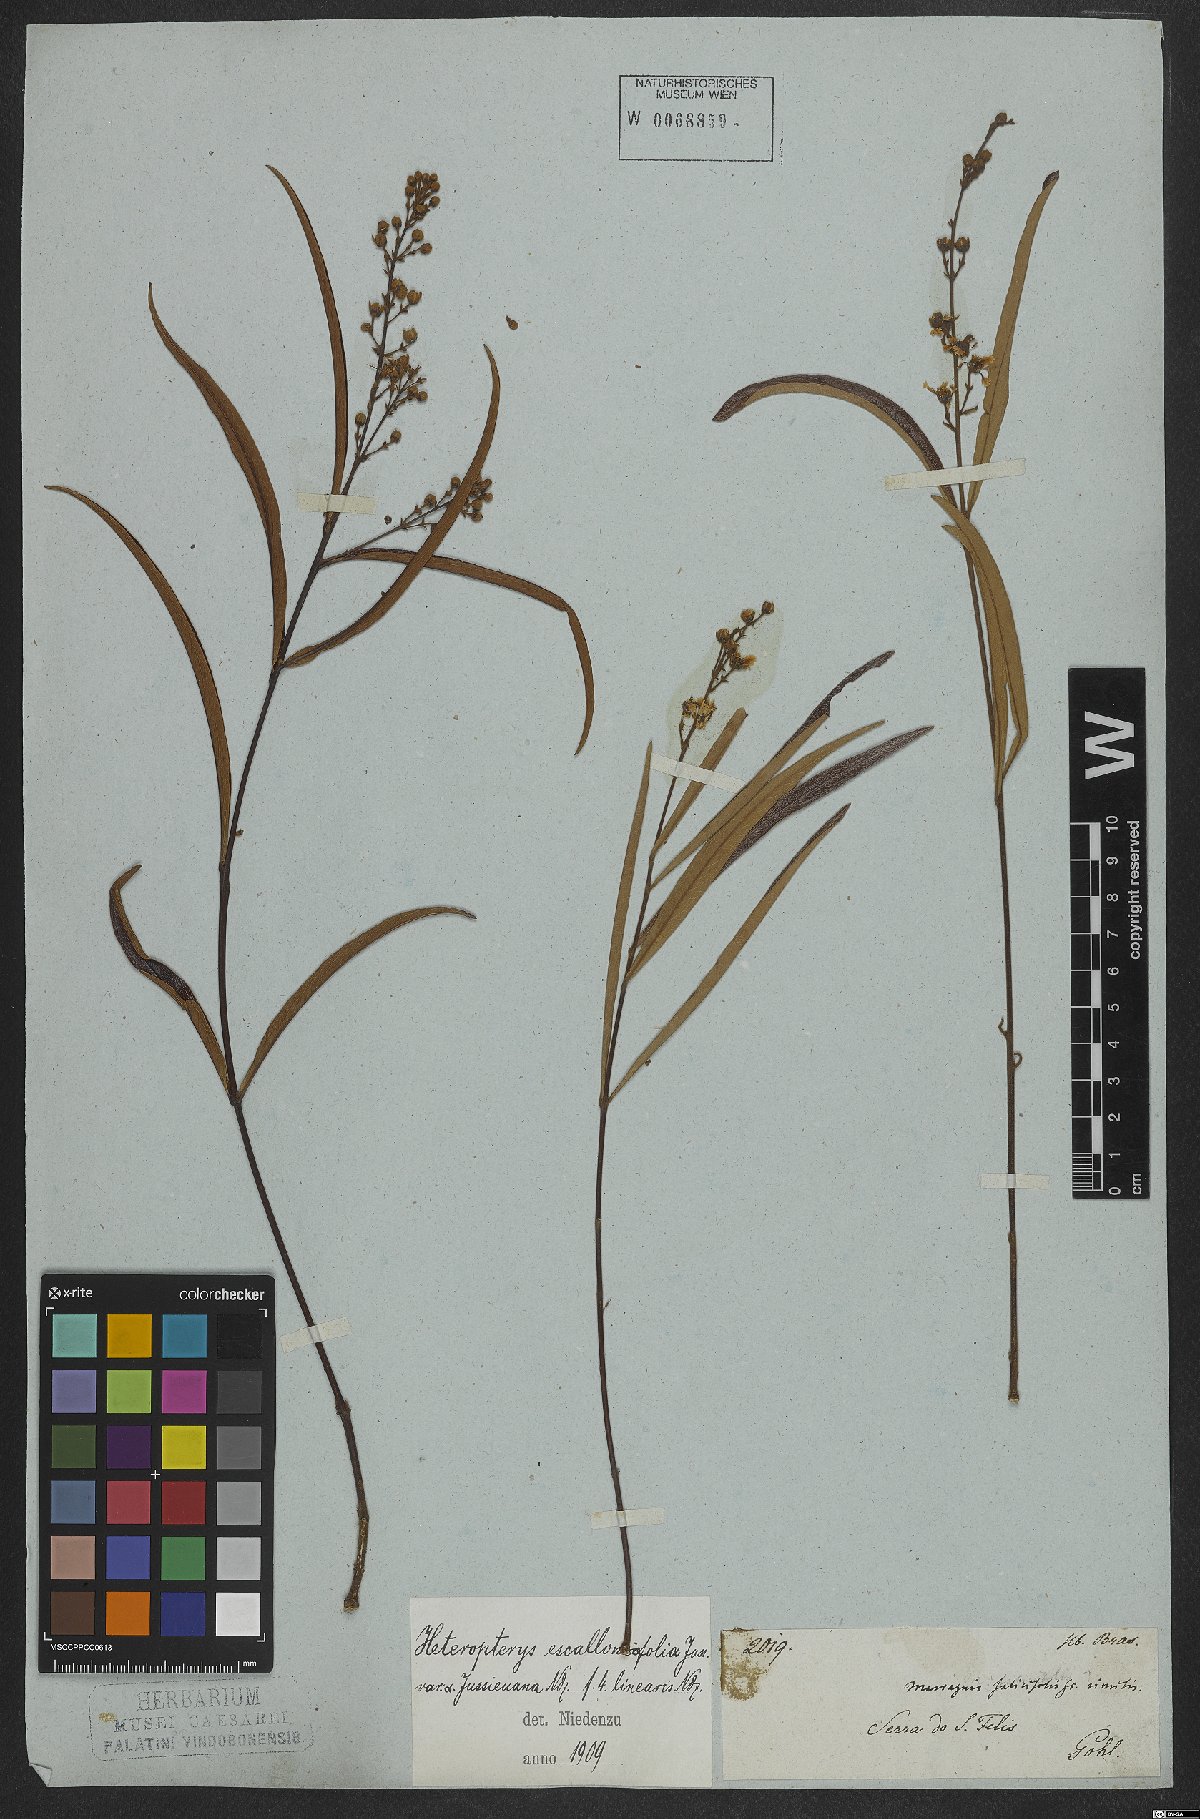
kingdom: Plantae
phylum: Tracheophyta
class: Magnoliopsida
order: Malpighiales
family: Malpighiaceae
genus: Heteropterys
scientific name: Heteropterys escalloniifolia
